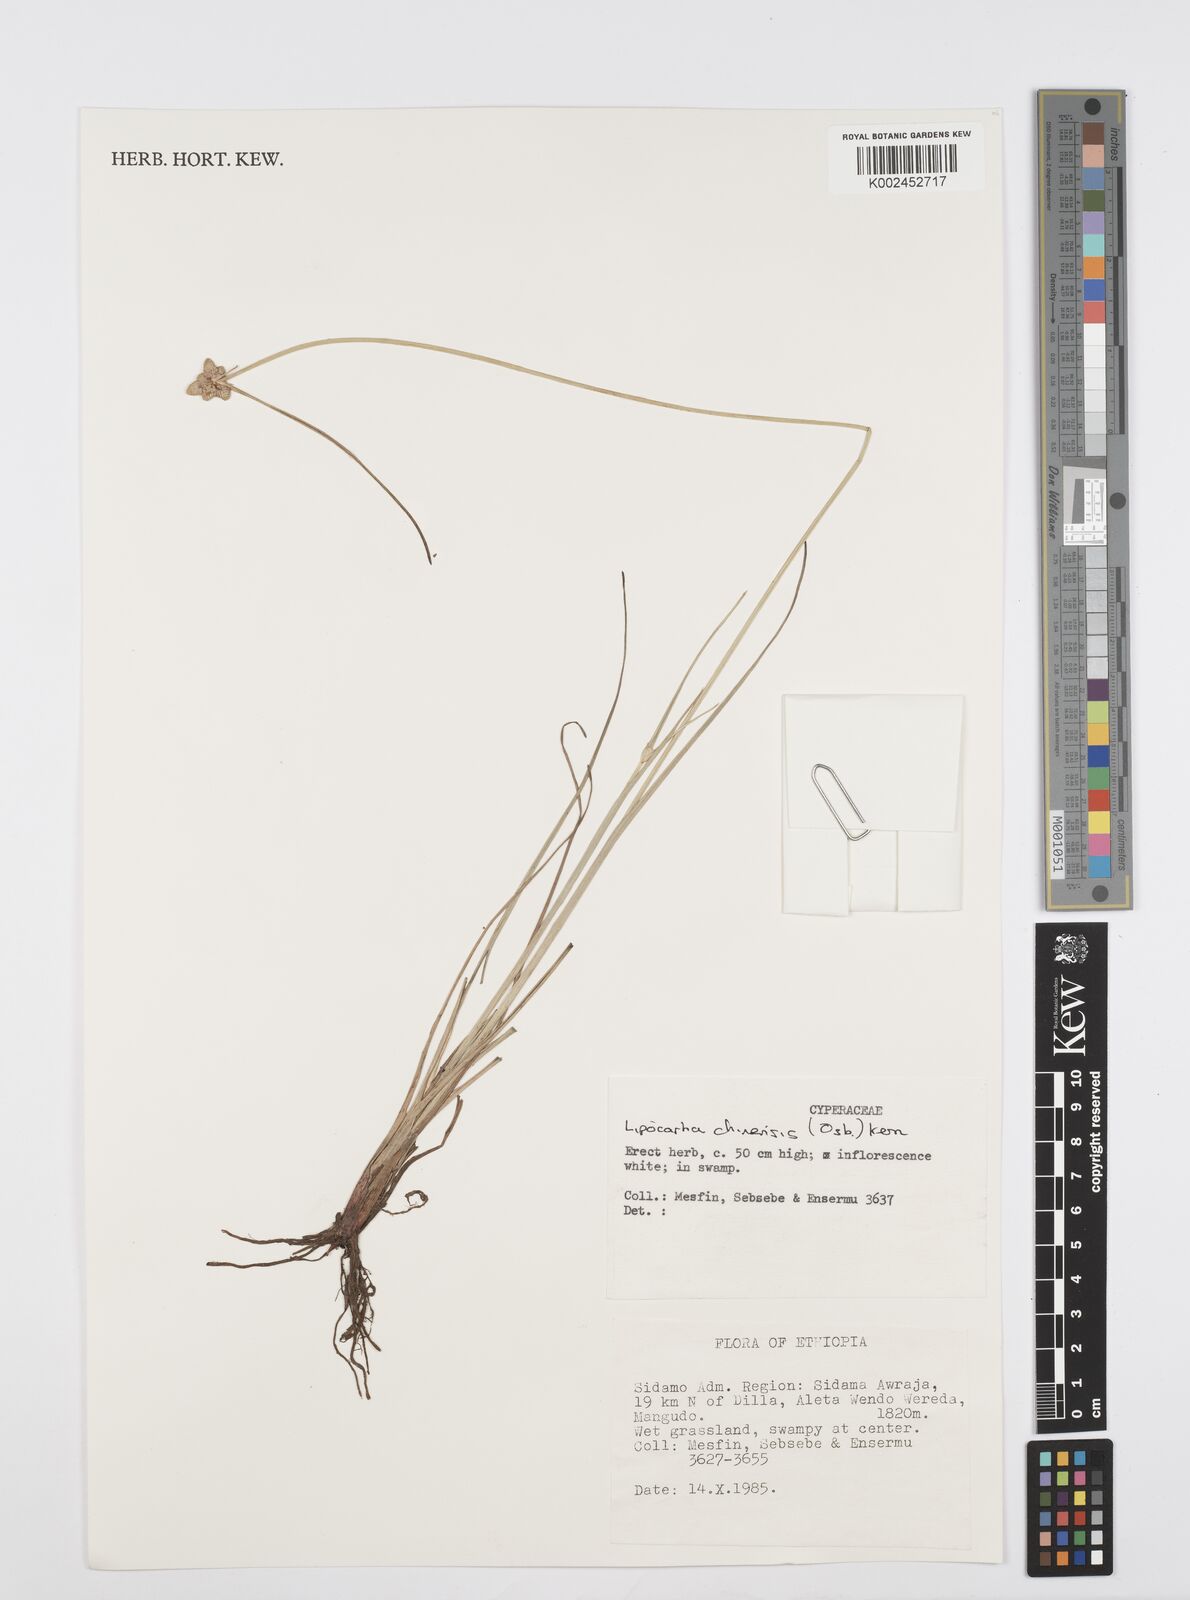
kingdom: Plantae
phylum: Tracheophyta
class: Liliopsida
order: Poales
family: Cyperaceae
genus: Cyperus
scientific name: Cyperus albescens
